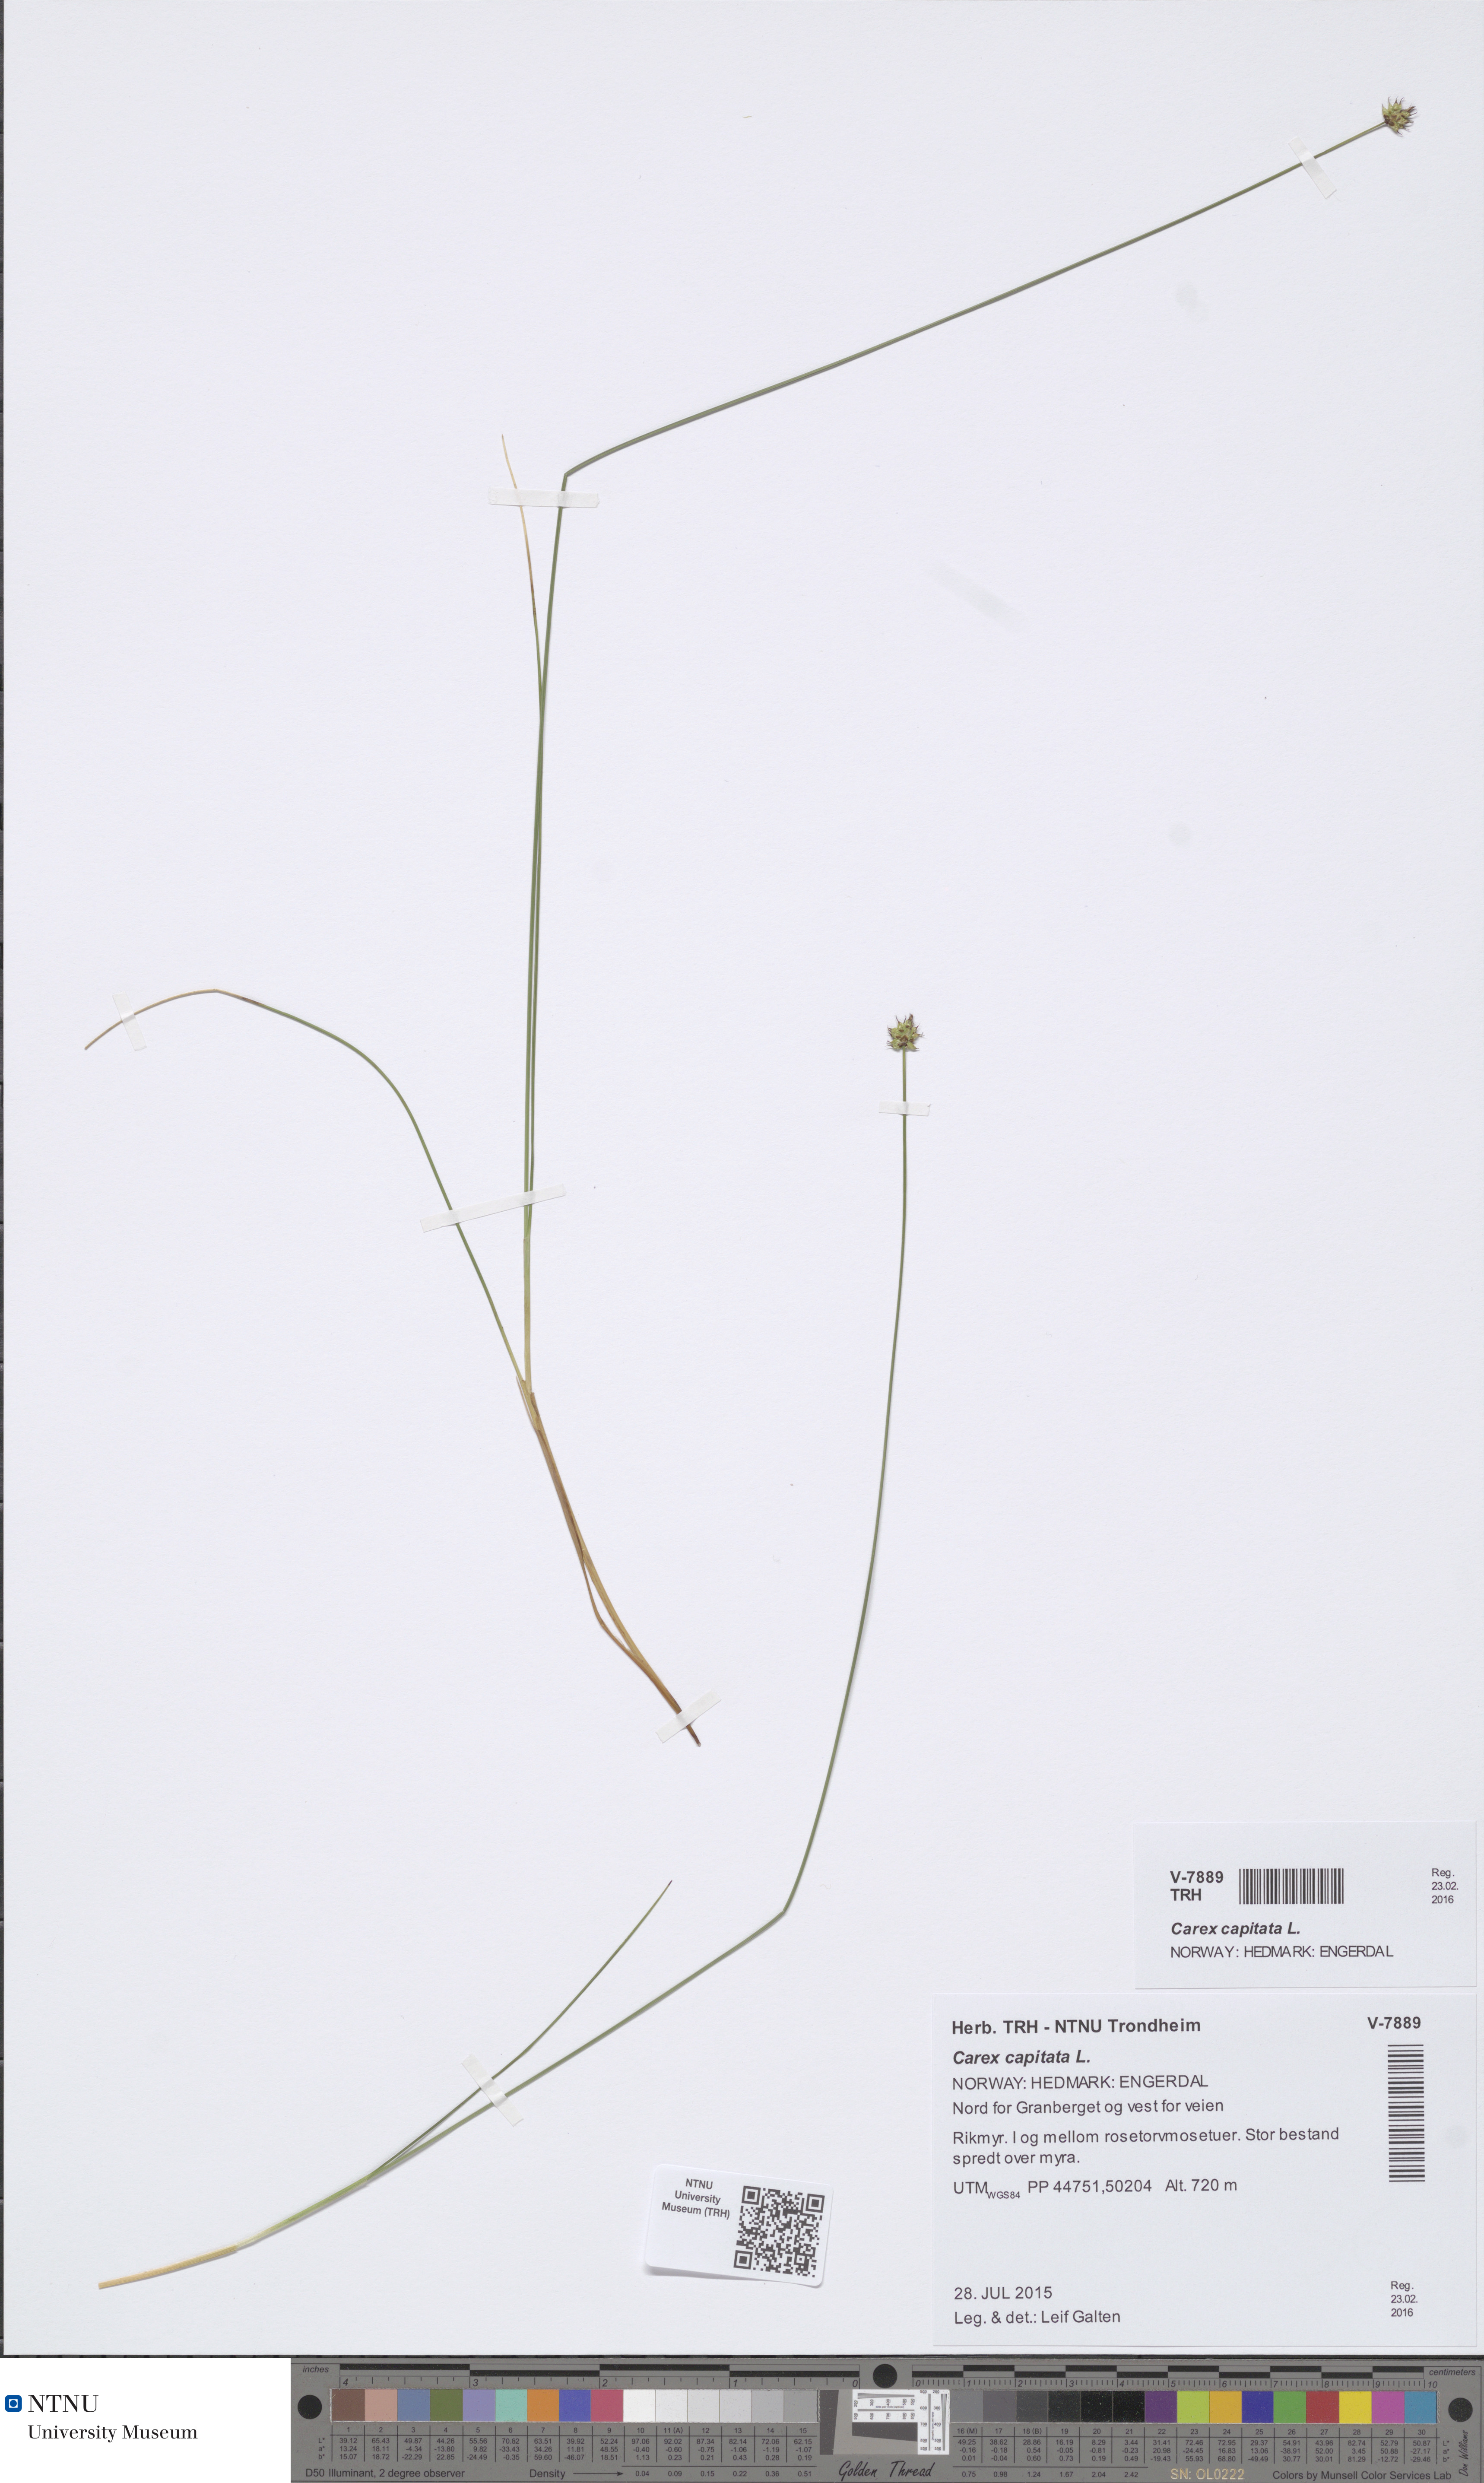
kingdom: Plantae
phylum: Tracheophyta
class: Liliopsida
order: Poales
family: Cyperaceae
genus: Carex
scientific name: Carex capitata
